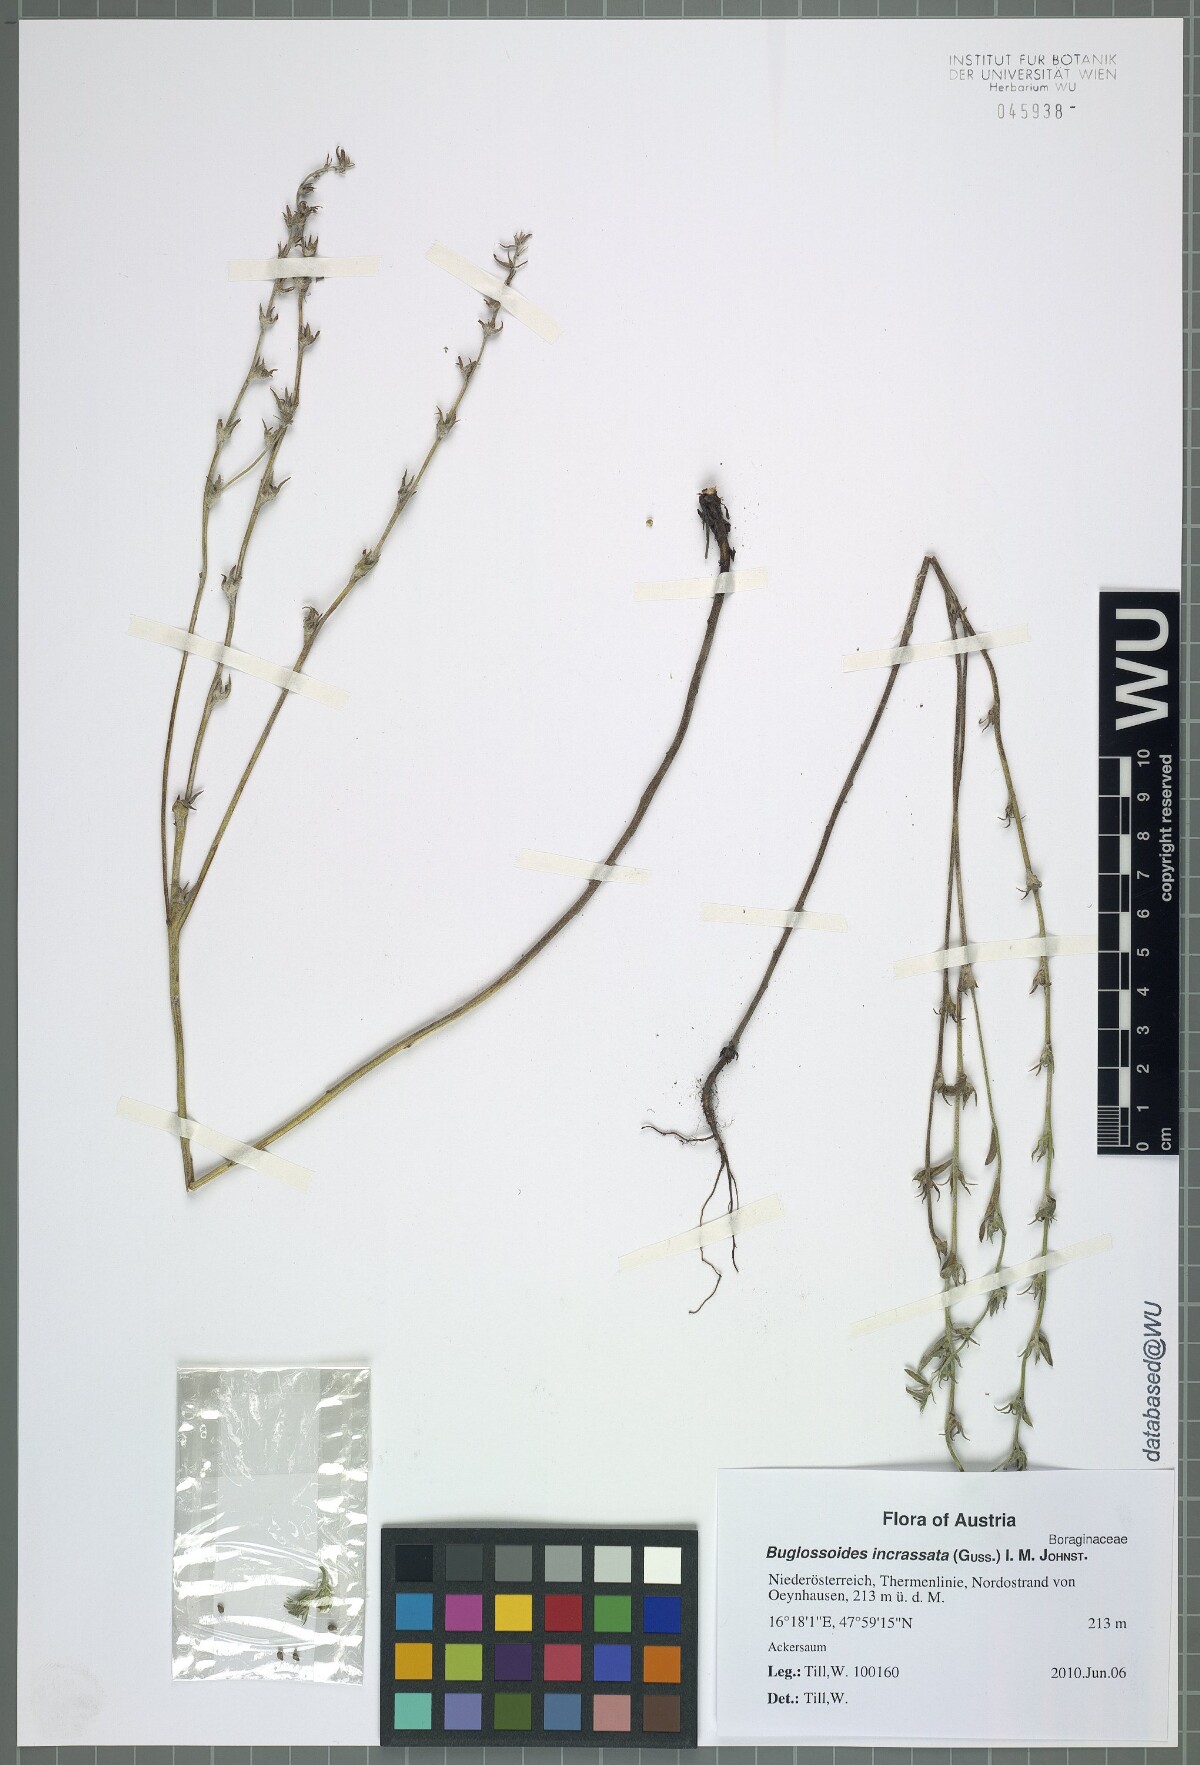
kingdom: Plantae
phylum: Tracheophyta
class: Magnoliopsida
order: Boraginales
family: Boraginaceae
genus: Buglossoides
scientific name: Buglossoides incrassata
